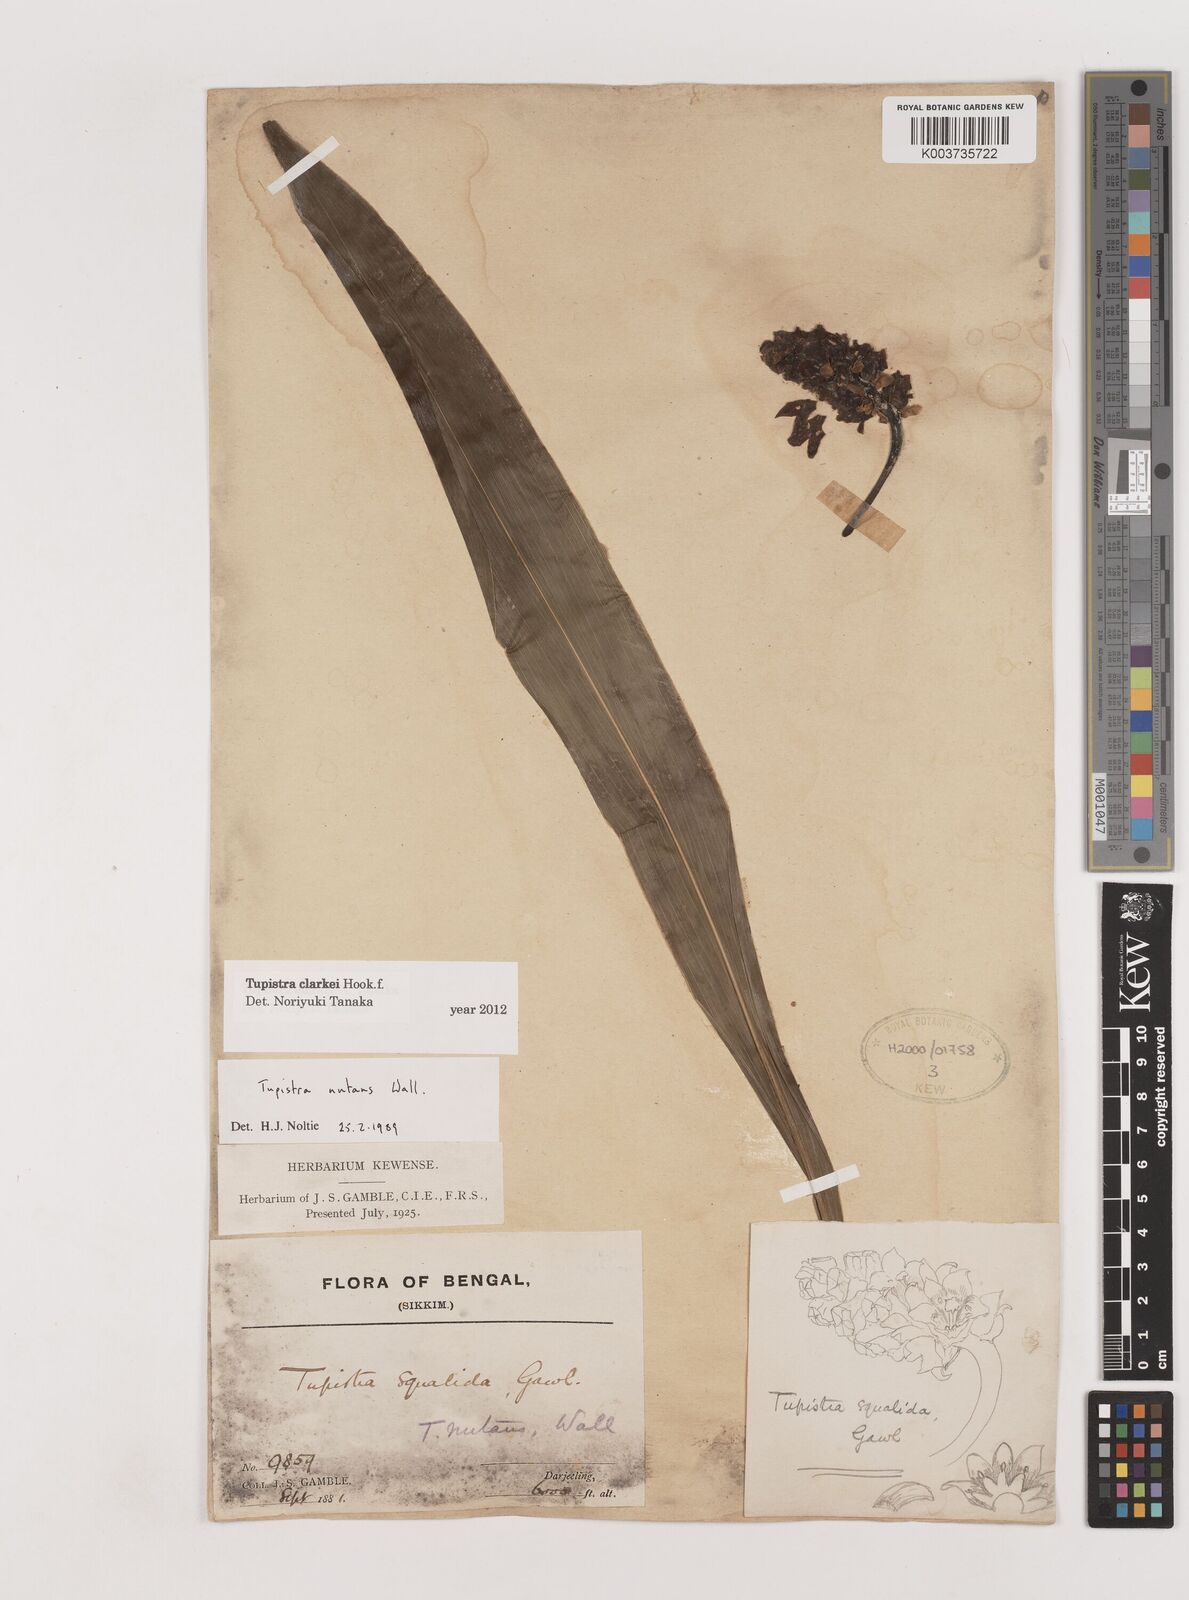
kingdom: Plantae
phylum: Tracheophyta
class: Liliopsida
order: Asparagales
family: Asparagaceae
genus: Tupistra
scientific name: Tupistra clarkei
